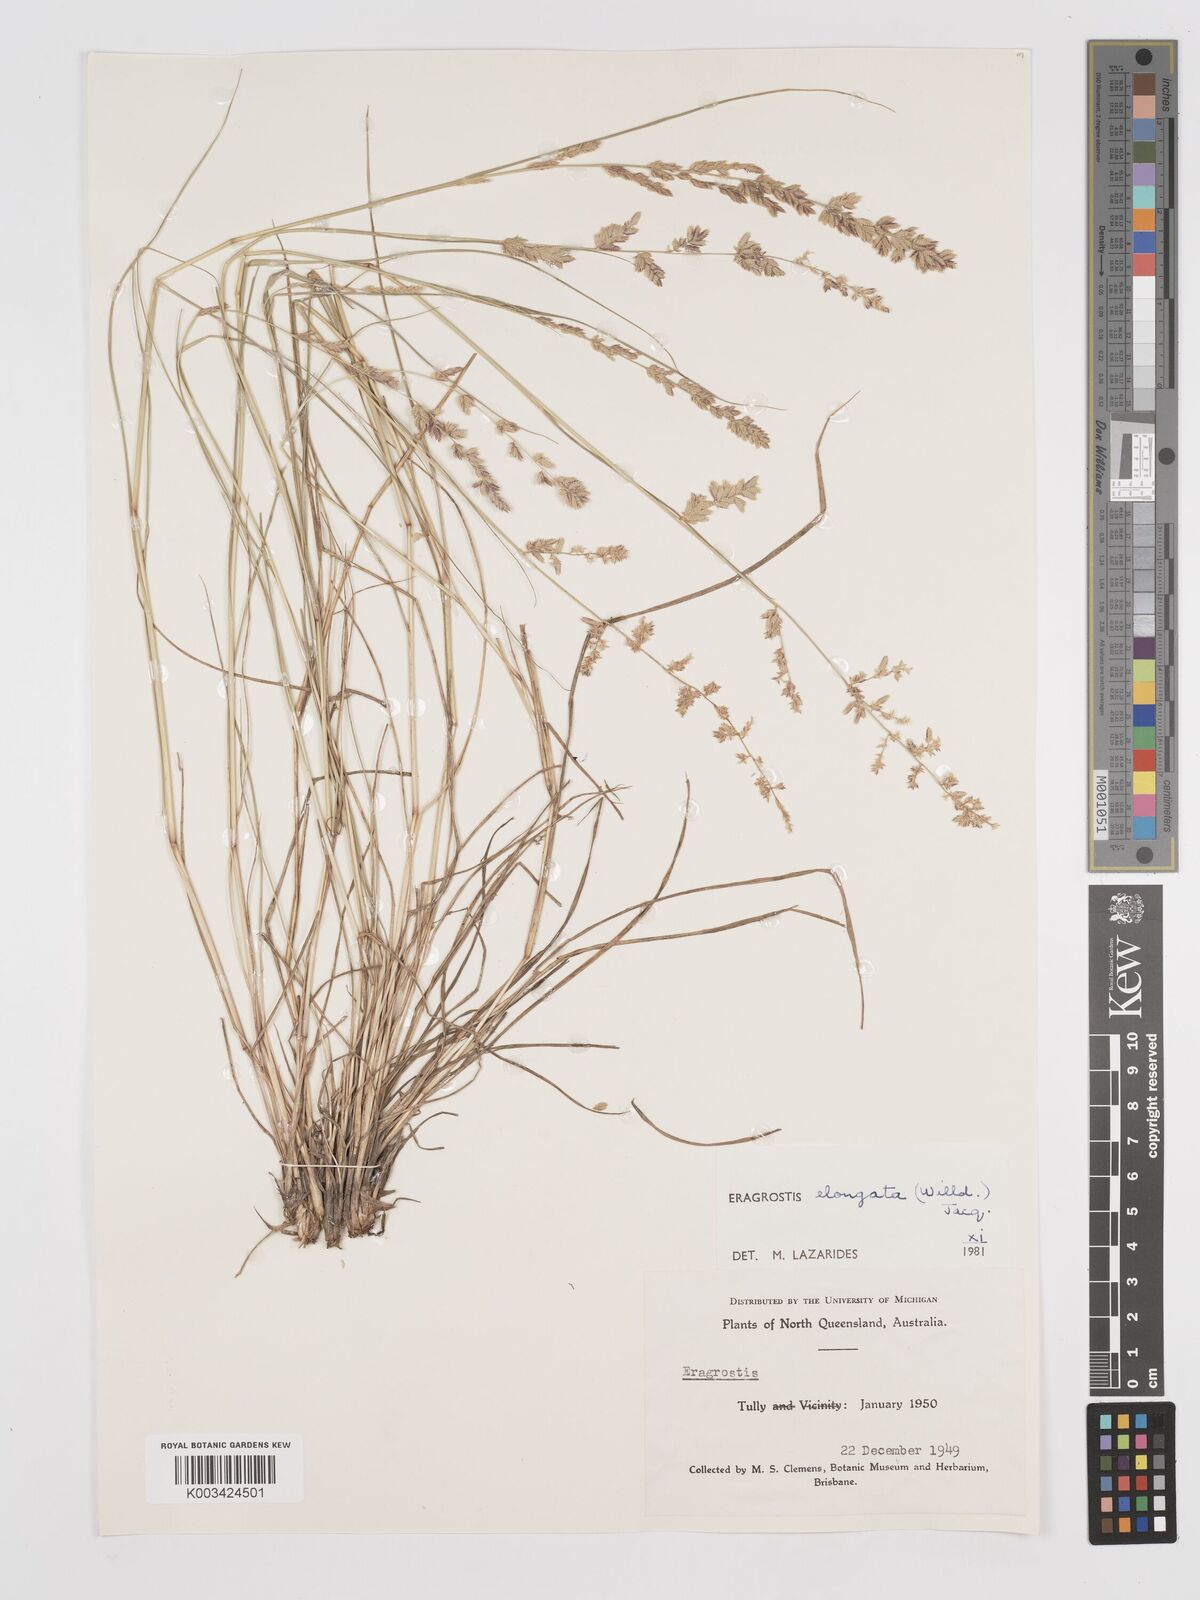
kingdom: Plantae
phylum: Tracheophyta
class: Liliopsida
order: Poales
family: Poaceae
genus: Eragrostis
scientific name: Eragrostis elongata
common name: Long lovegrass
